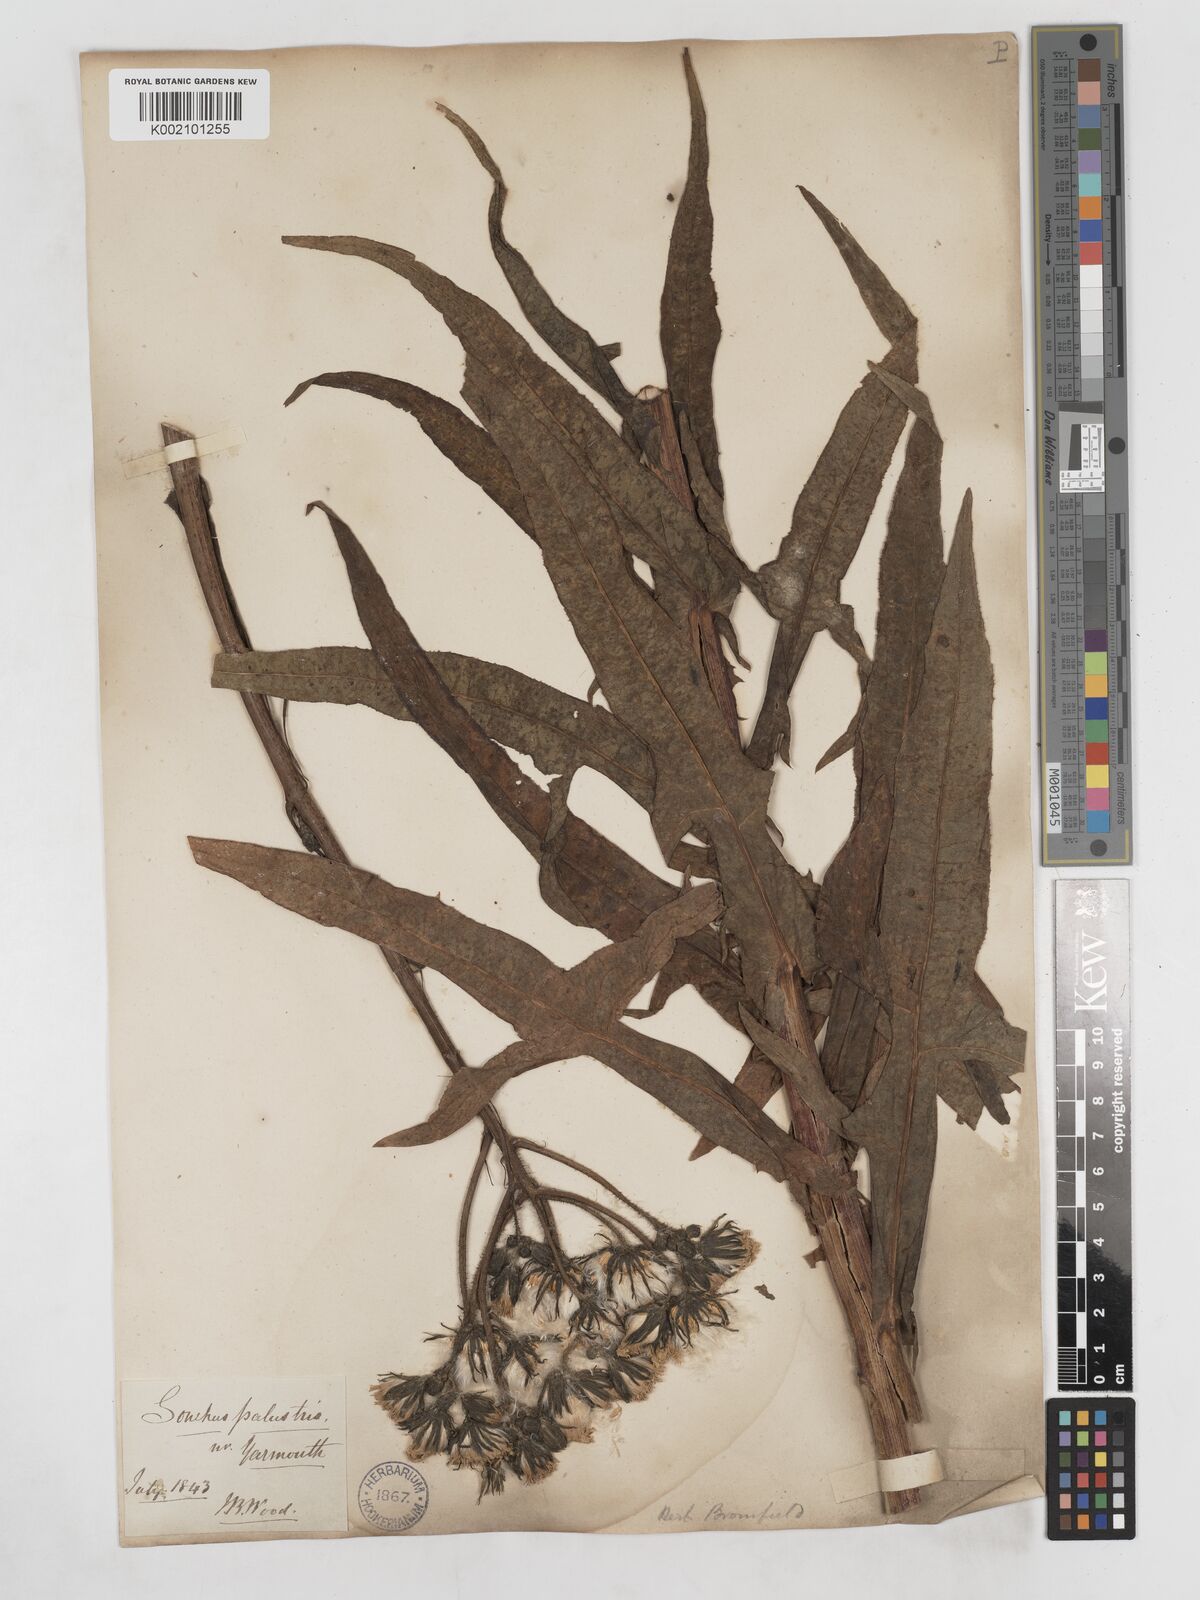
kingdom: Plantae
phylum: Tracheophyta
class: Magnoliopsida
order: Asterales
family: Asteraceae
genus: Sonchus
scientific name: Sonchus palustris
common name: Marsh sow-thistle
